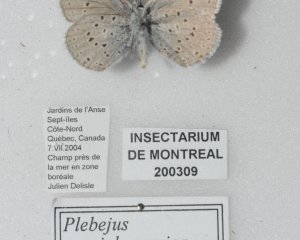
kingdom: Animalia
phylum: Arthropoda
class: Insecta
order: Lepidoptera
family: Lycaenidae
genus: Plebejus
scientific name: Plebejus saepiolus
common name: Greenish Blue
